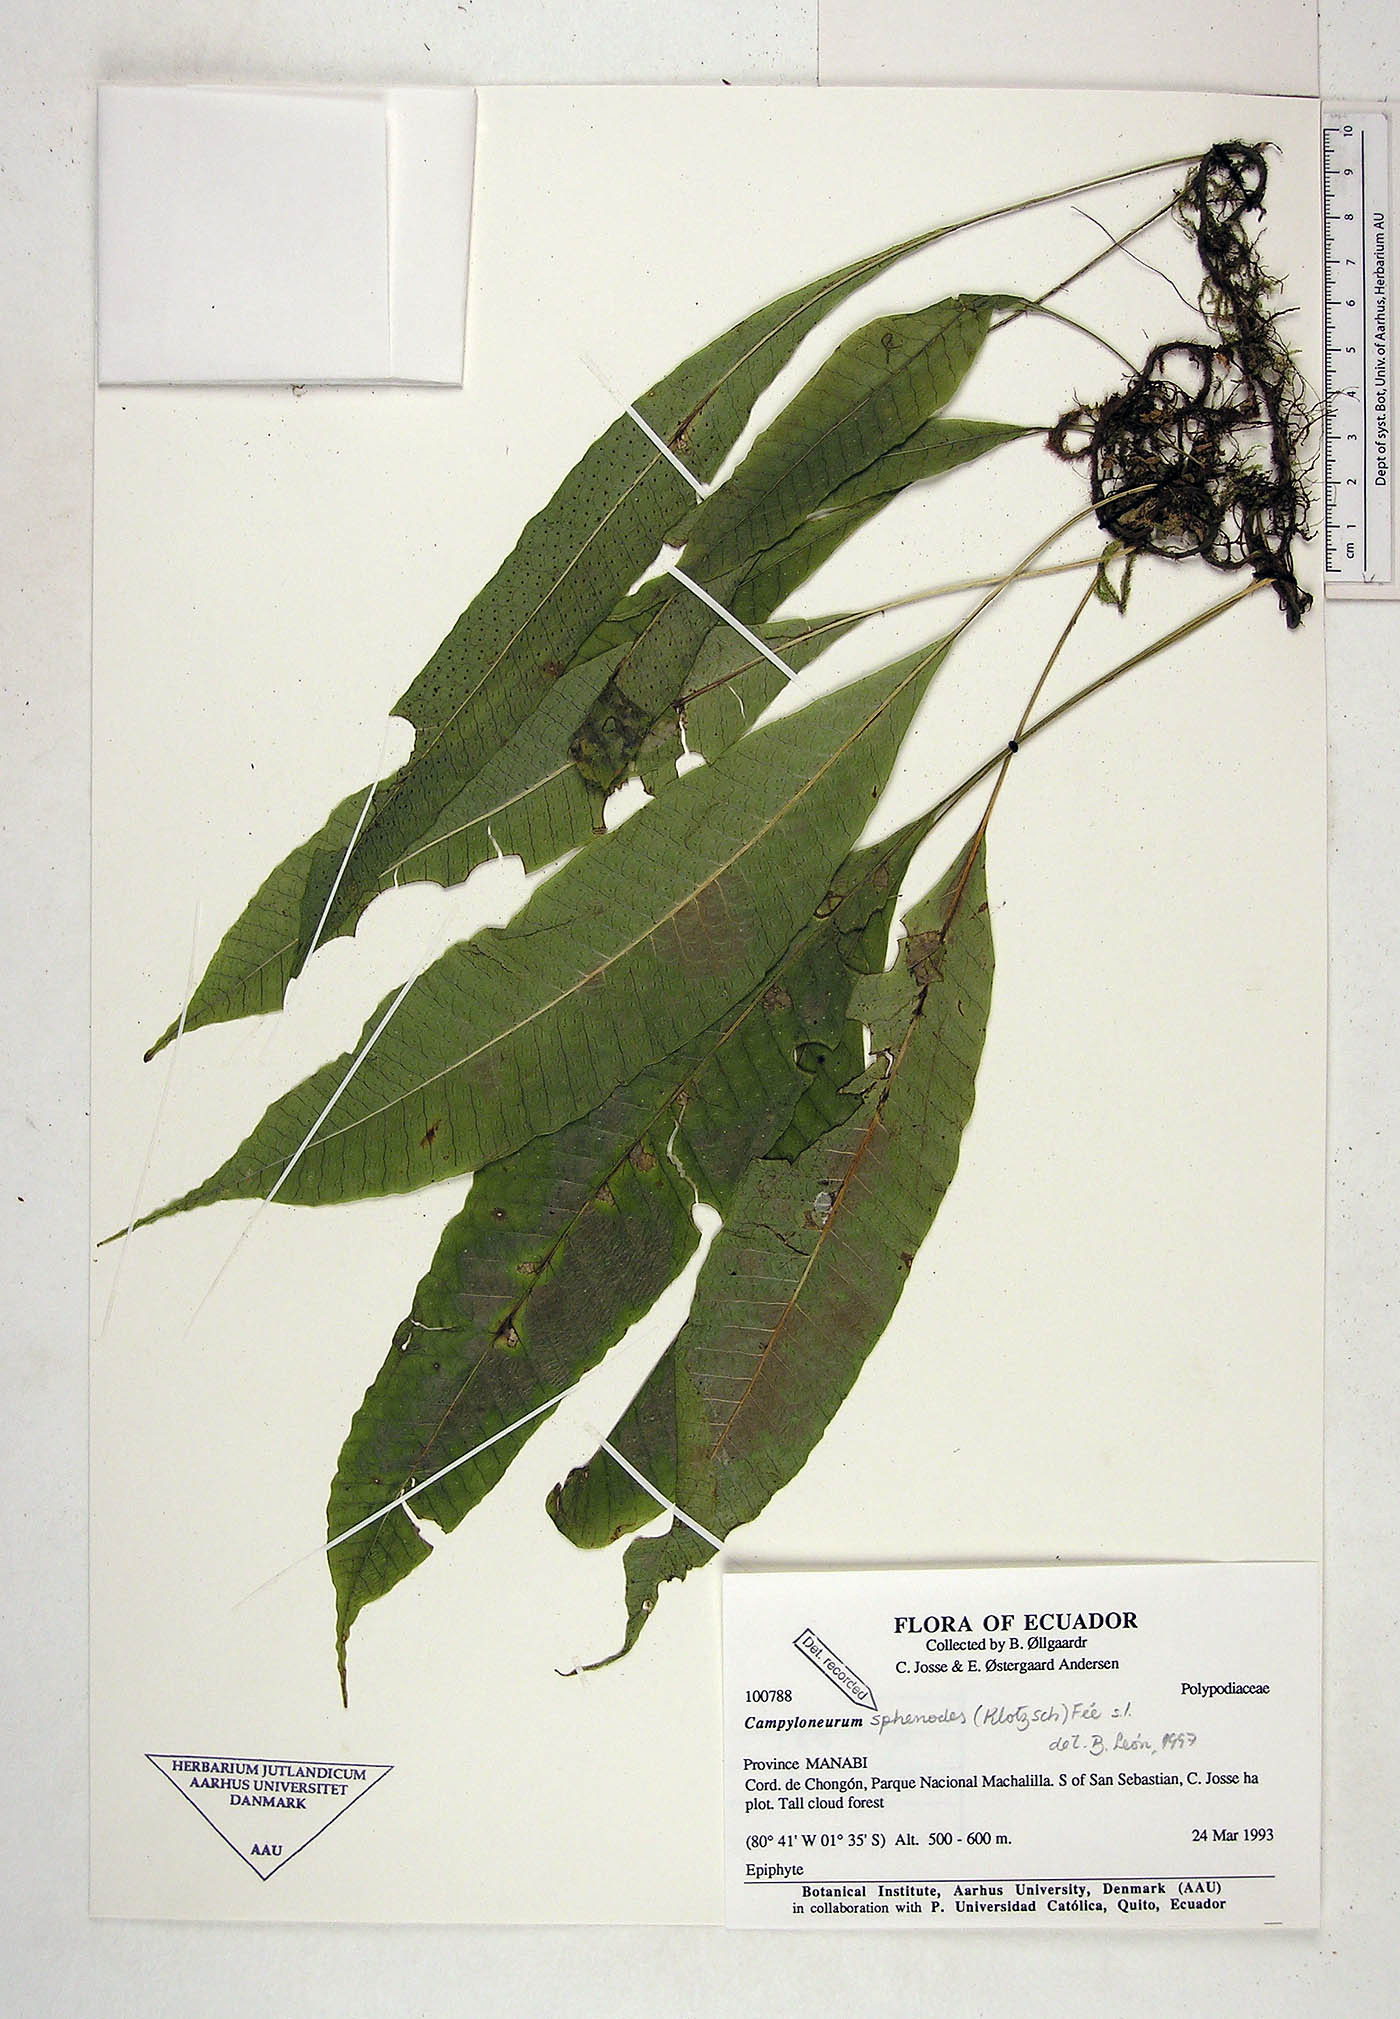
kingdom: Plantae
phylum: Tracheophyta
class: Polypodiopsida
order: Polypodiales
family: Polypodiaceae
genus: Campyloneurum
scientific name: Campyloneurum sphenodes
